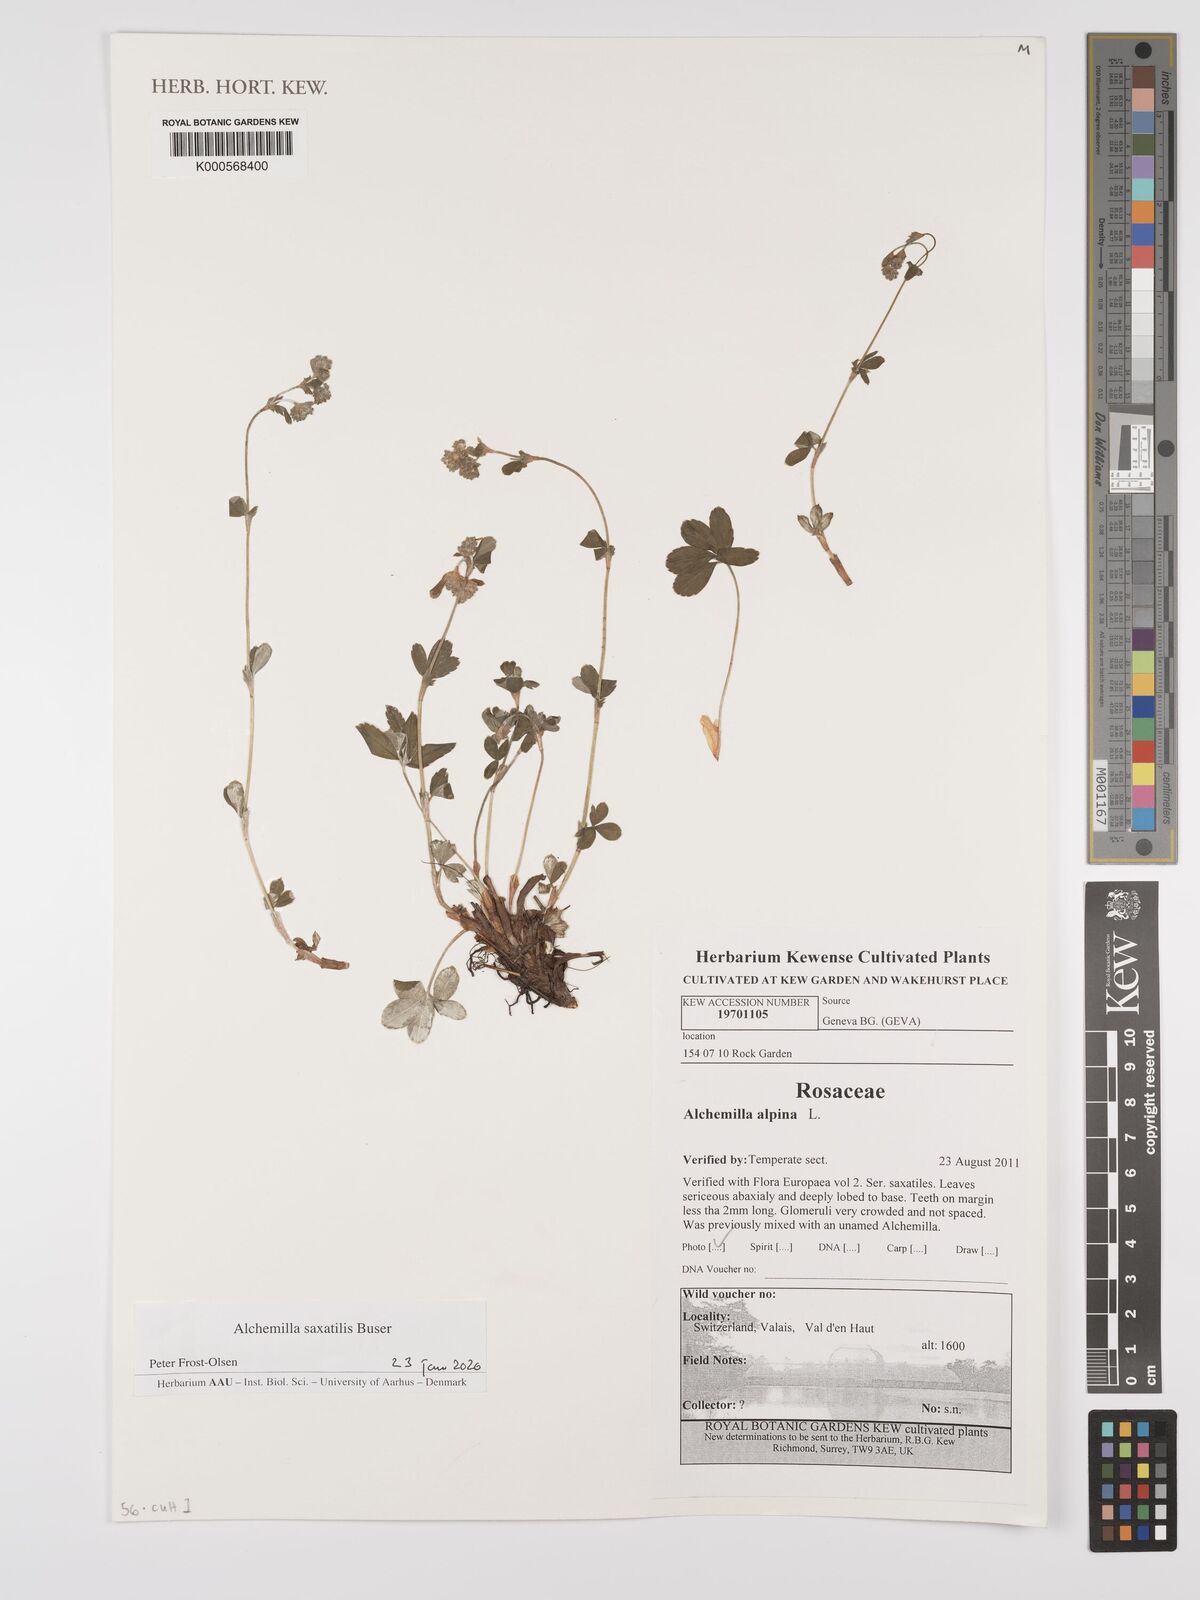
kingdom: Plantae
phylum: Tracheophyta
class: Magnoliopsida
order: Rosales
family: Rosaceae
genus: Alchemilla
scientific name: Alchemilla saxatilis
